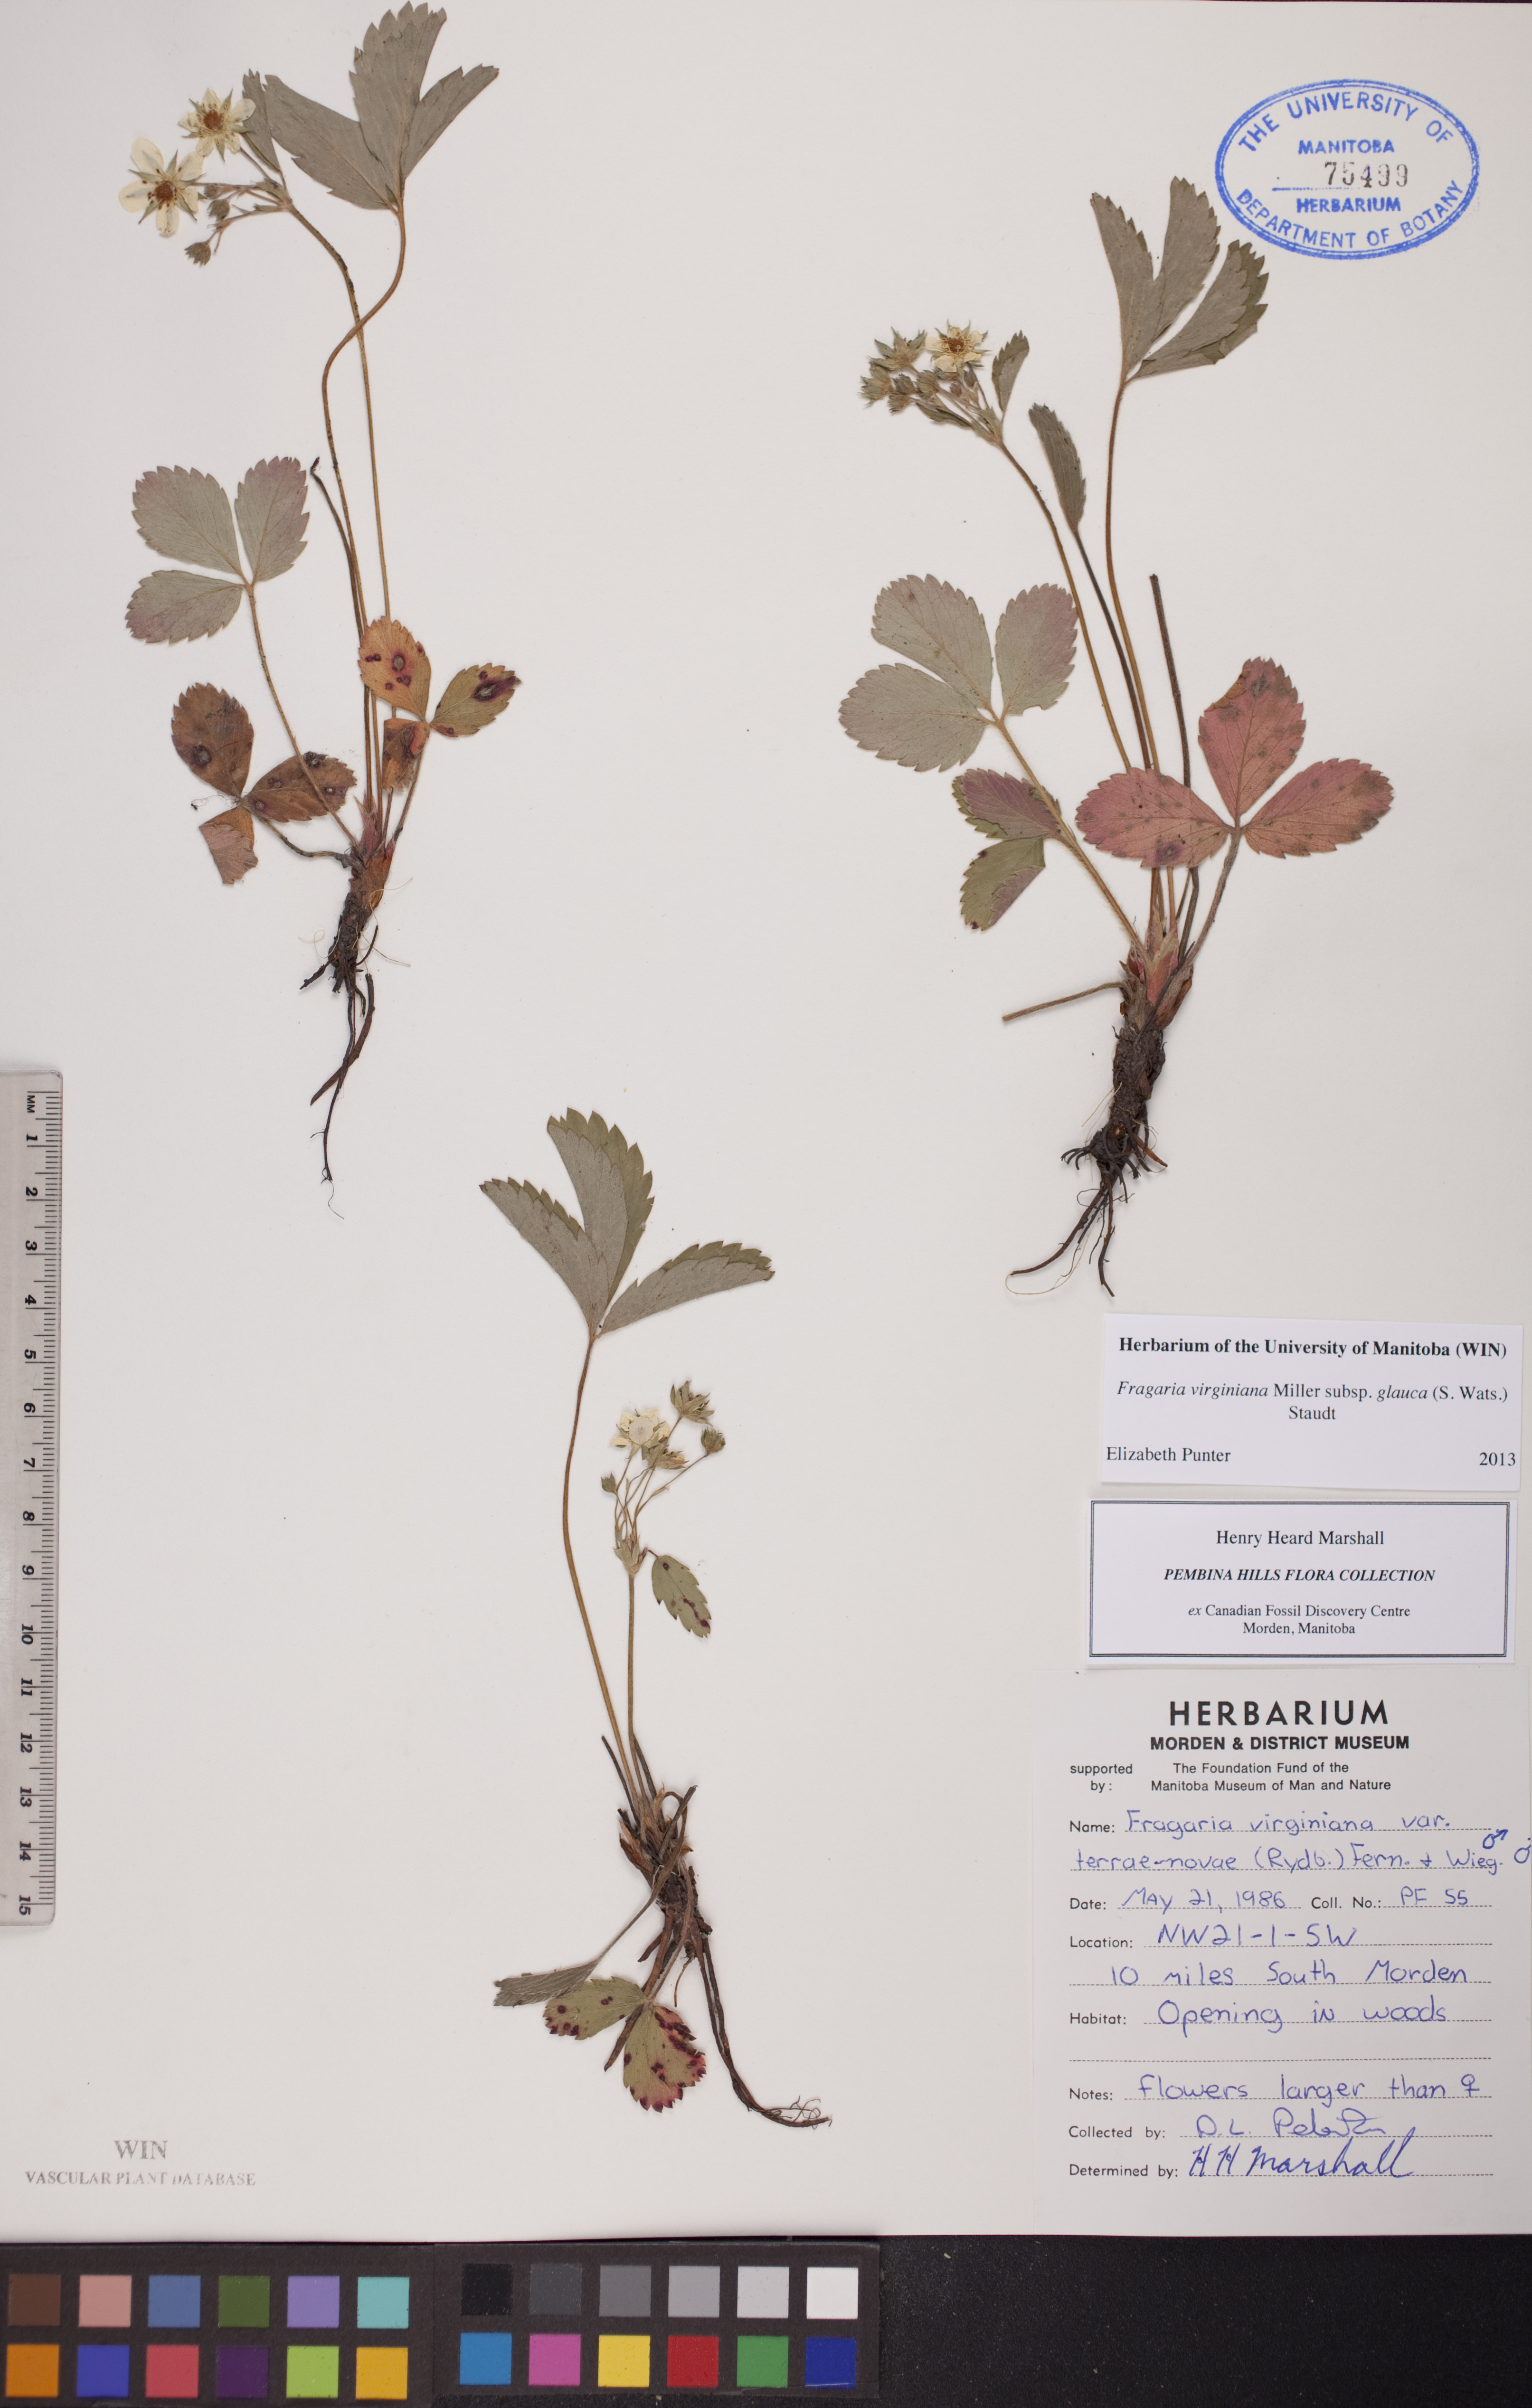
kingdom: Plantae
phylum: Tracheophyta
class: Magnoliopsida
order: Rosales
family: Rosaceae
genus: Fragaria
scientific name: Fragaria virginiana
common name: Thickleaved wild strawberry
